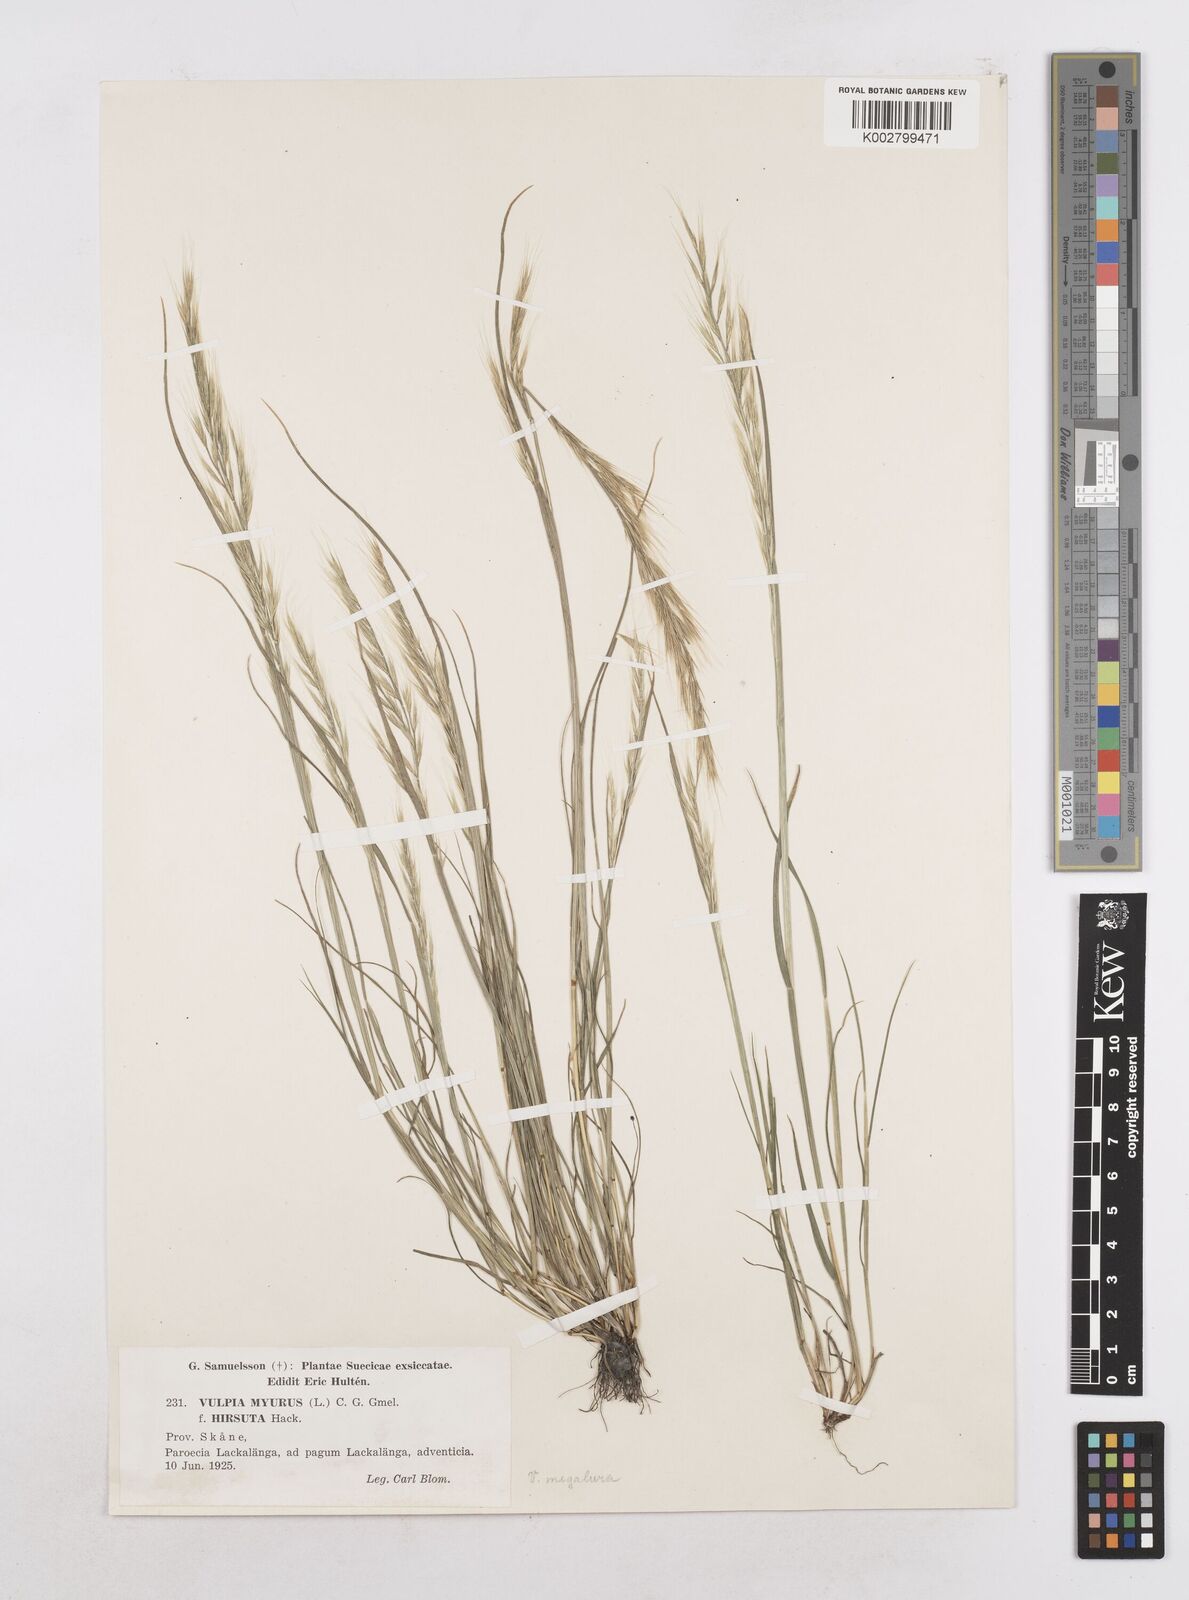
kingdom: Plantae
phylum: Tracheophyta
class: Liliopsida
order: Poales
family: Poaceae
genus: Festuca
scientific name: Festuca myuros
